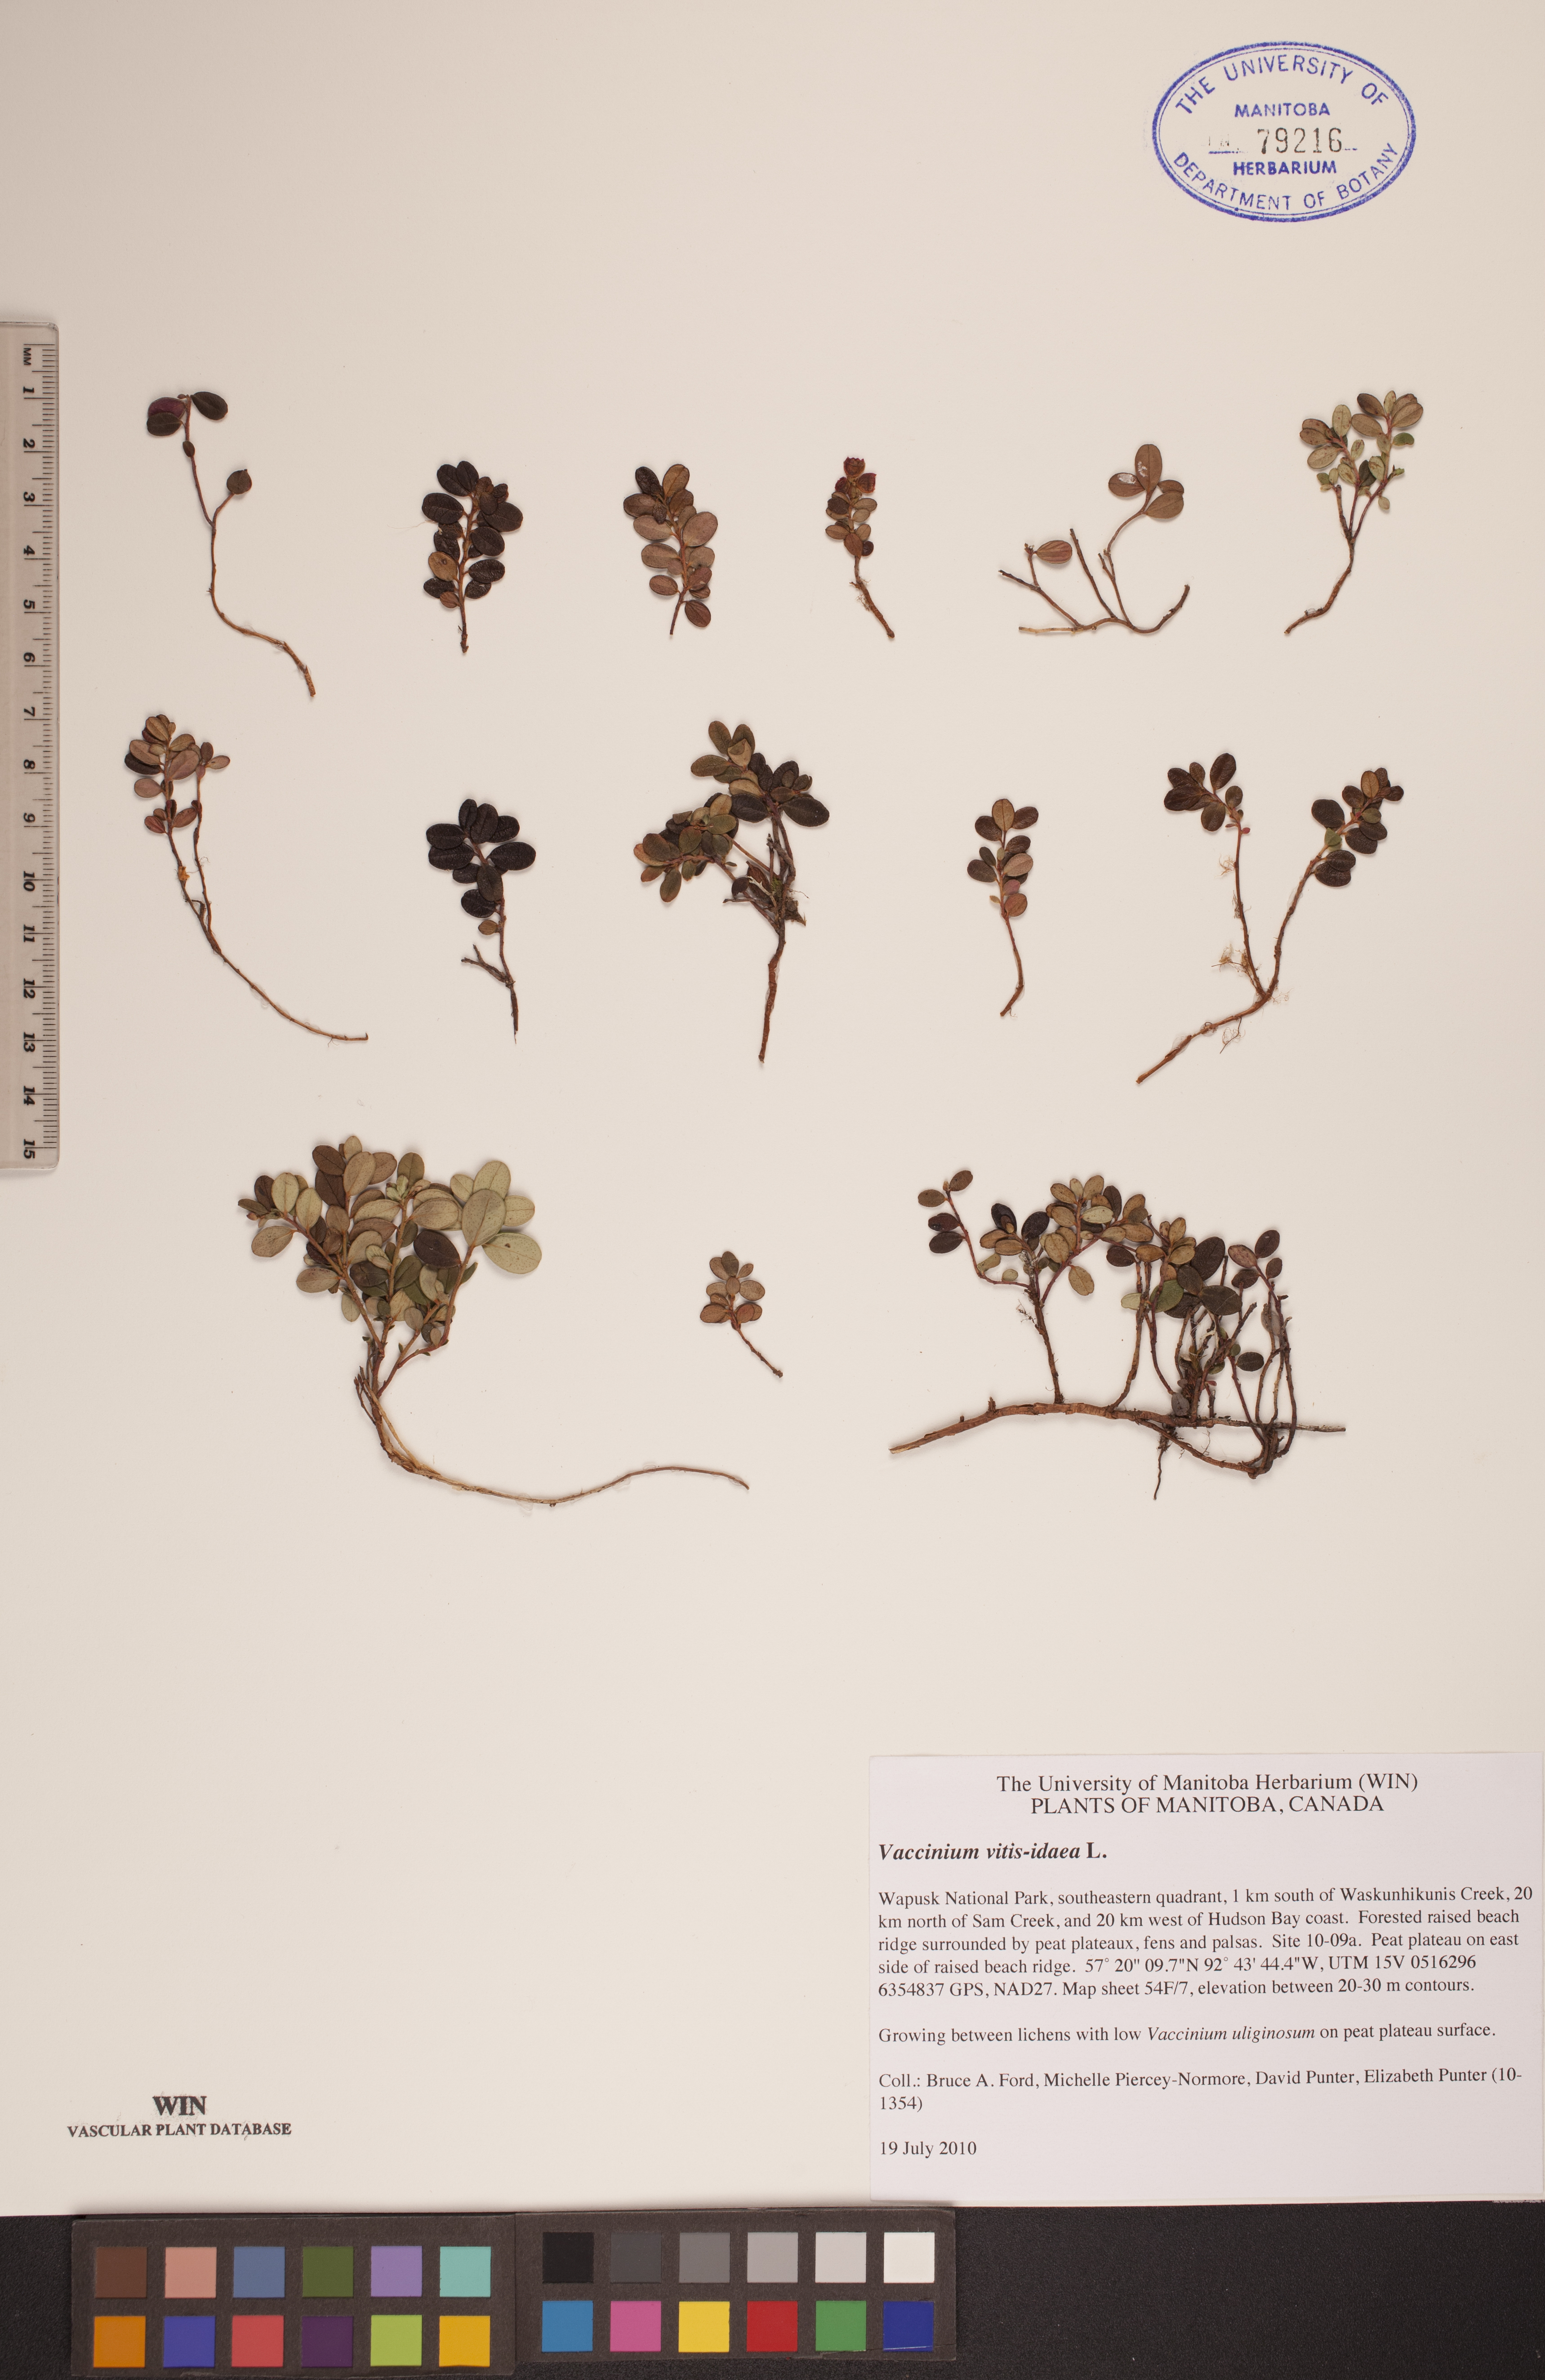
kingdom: Plantae
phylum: Tracheophyta
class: Magnoliopsida
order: Ericales
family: Ericaceae
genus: Vaccinium
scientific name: Vaccinium vitis-idaea
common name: Cowberry
